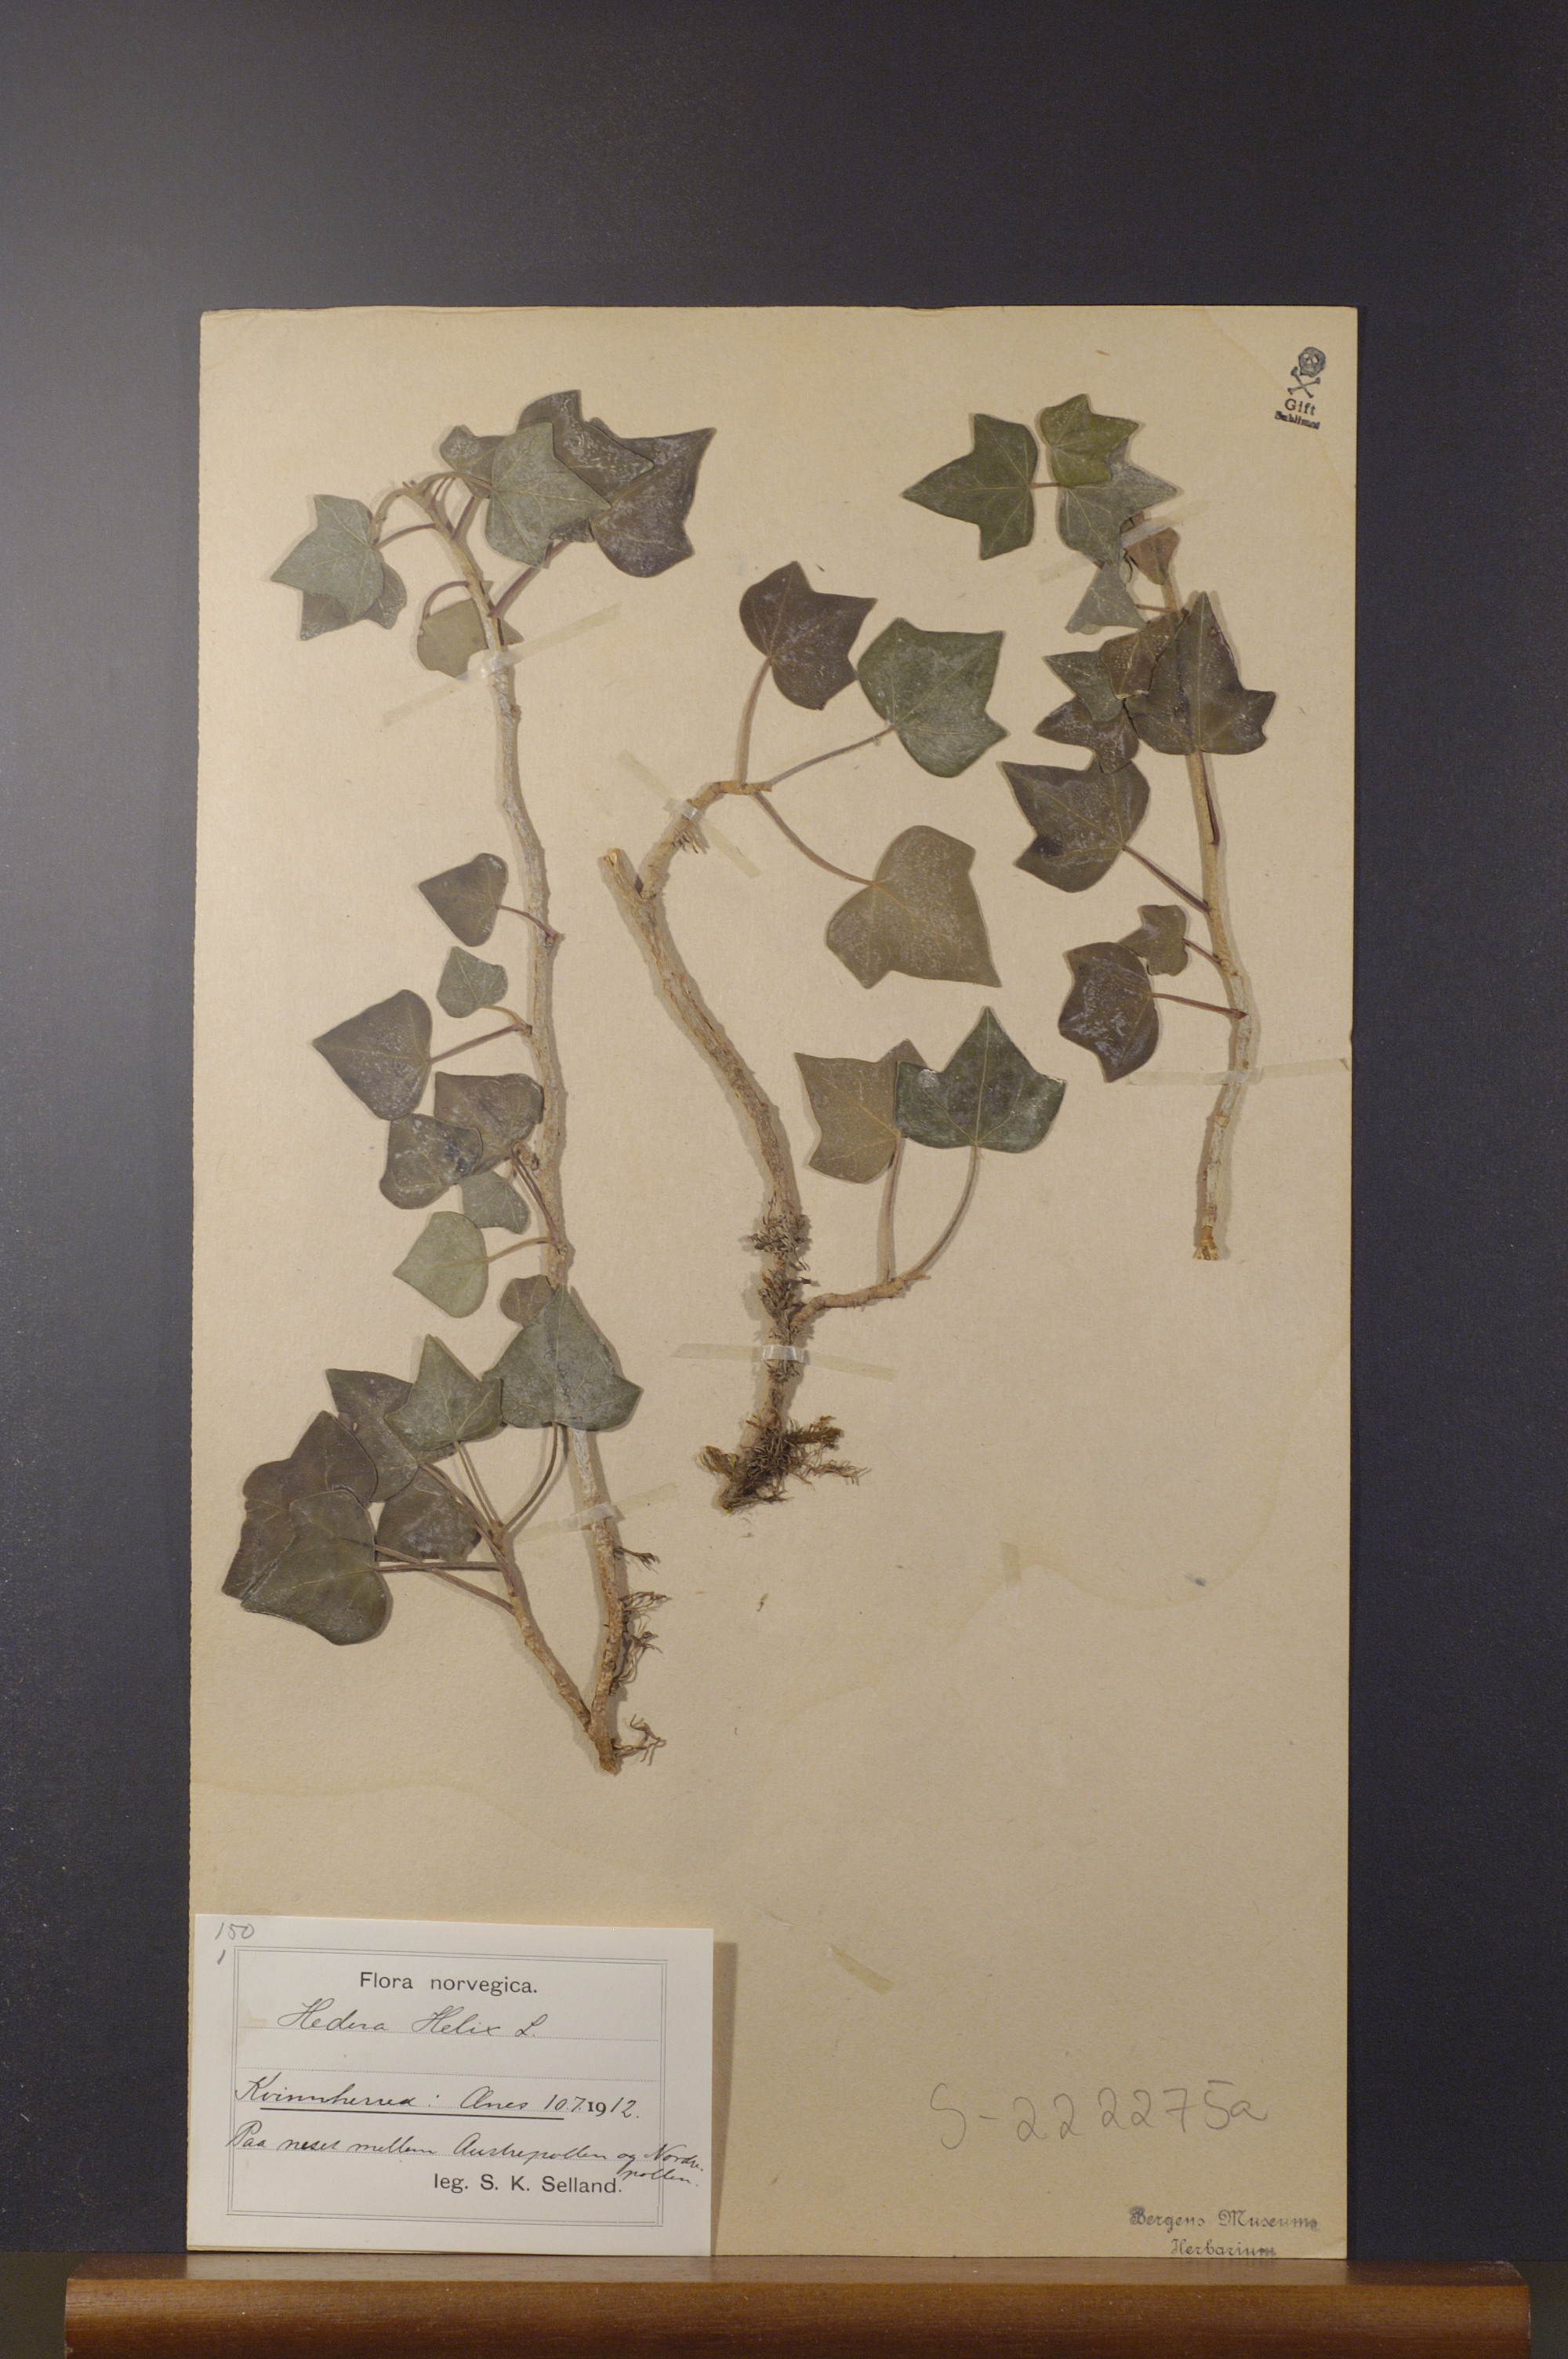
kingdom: Plantae
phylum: Tracheophyta
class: Magnoliopsida
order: Apiales
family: Araliaceae
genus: Hedera
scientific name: Hedera helix
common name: Ivy
